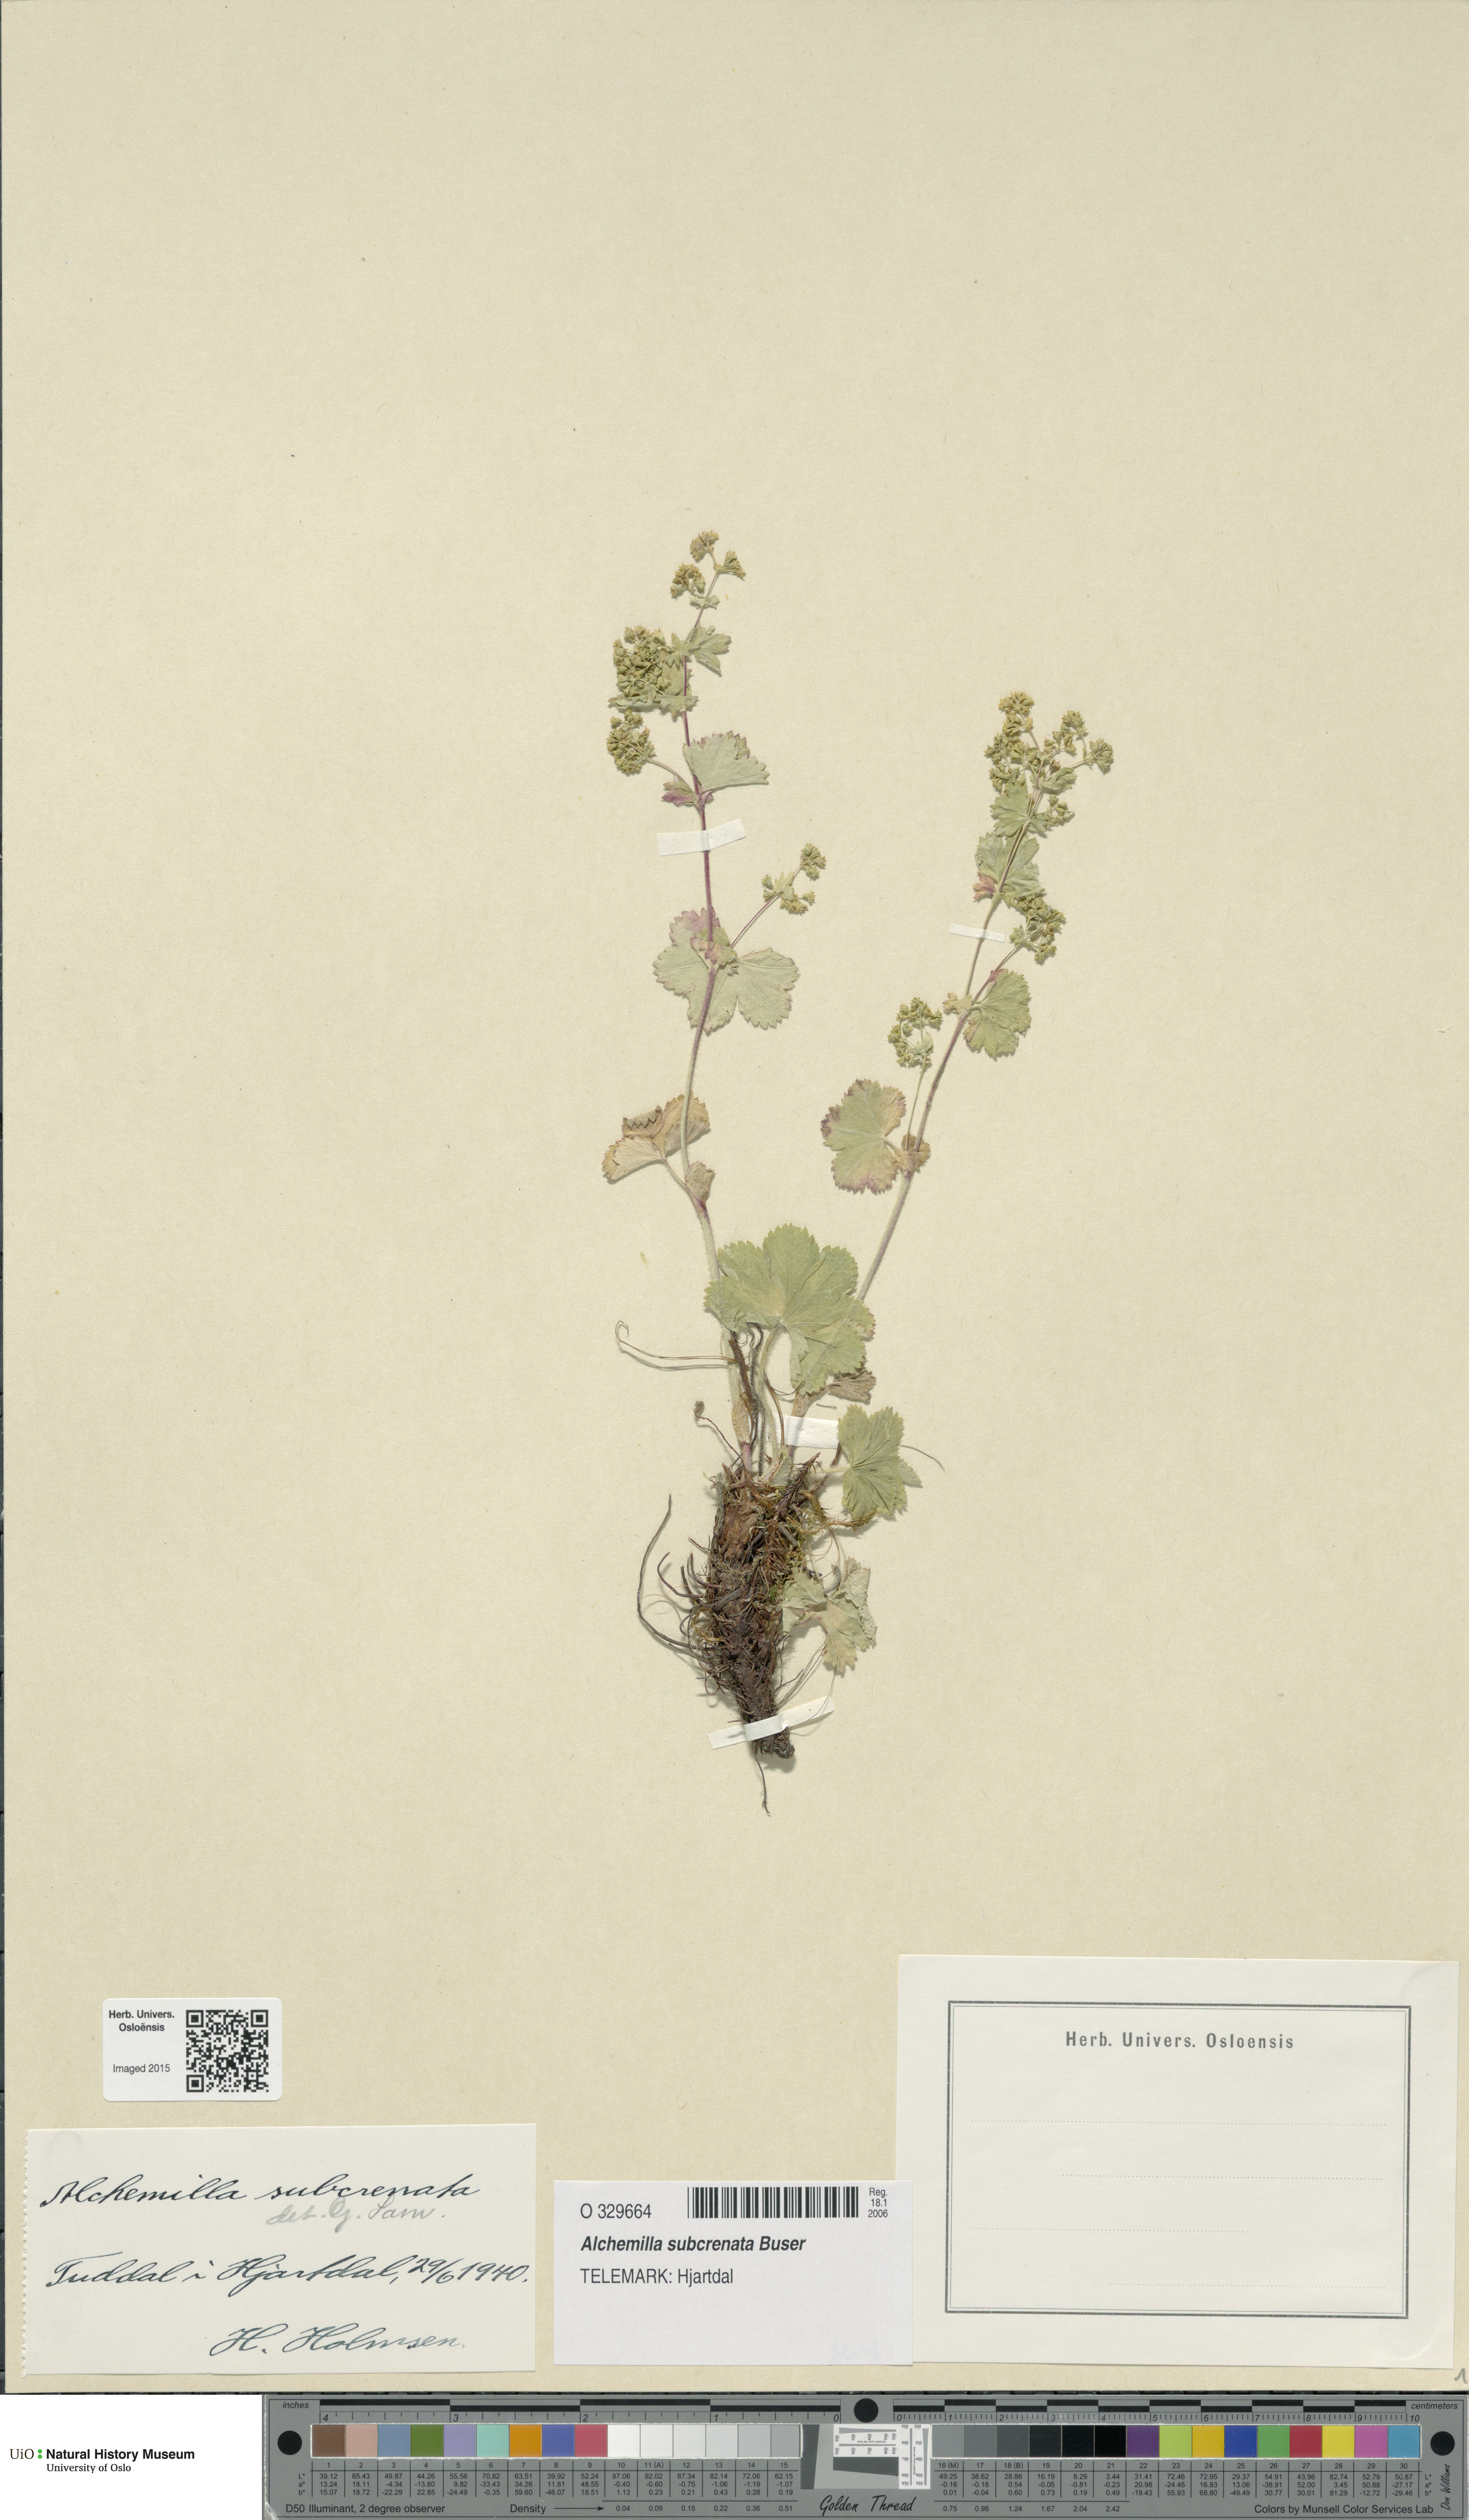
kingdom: Plantae
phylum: Tracheophyta
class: Magnoliopsida
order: Rosales
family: Rosaceae
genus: Alchemilla
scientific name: Alchemilla subcrenata
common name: Broadtooth lady's mantle
